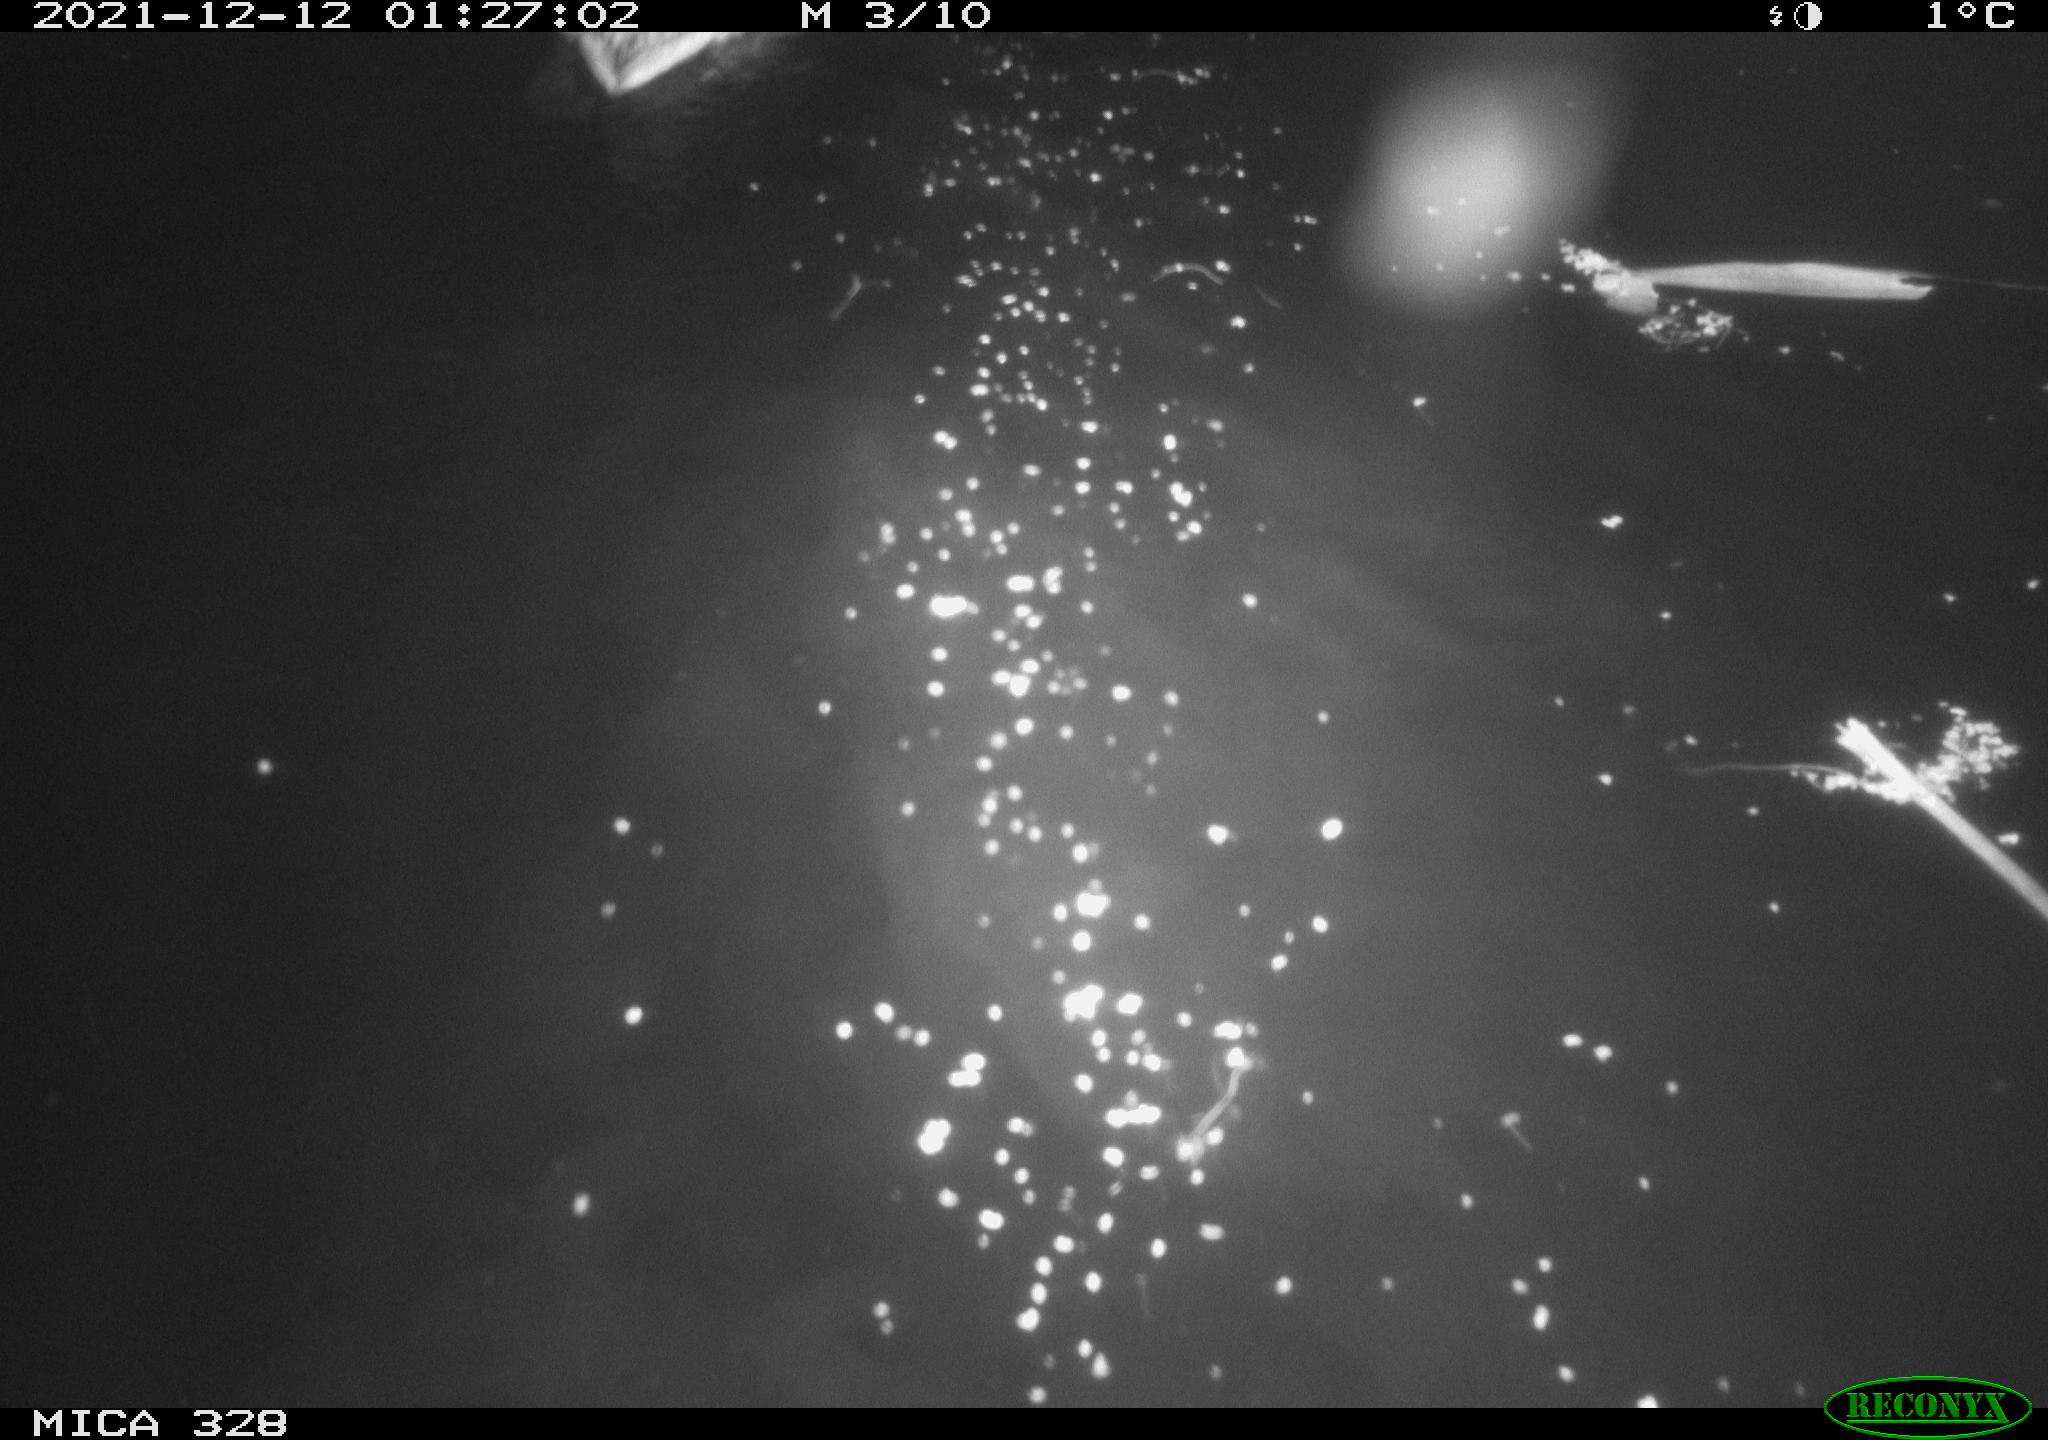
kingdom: Animalia
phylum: Chordata
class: Aves
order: Anseriformes
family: Anatidae
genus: Anas
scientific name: Anas platyrhynchos
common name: Mallard
